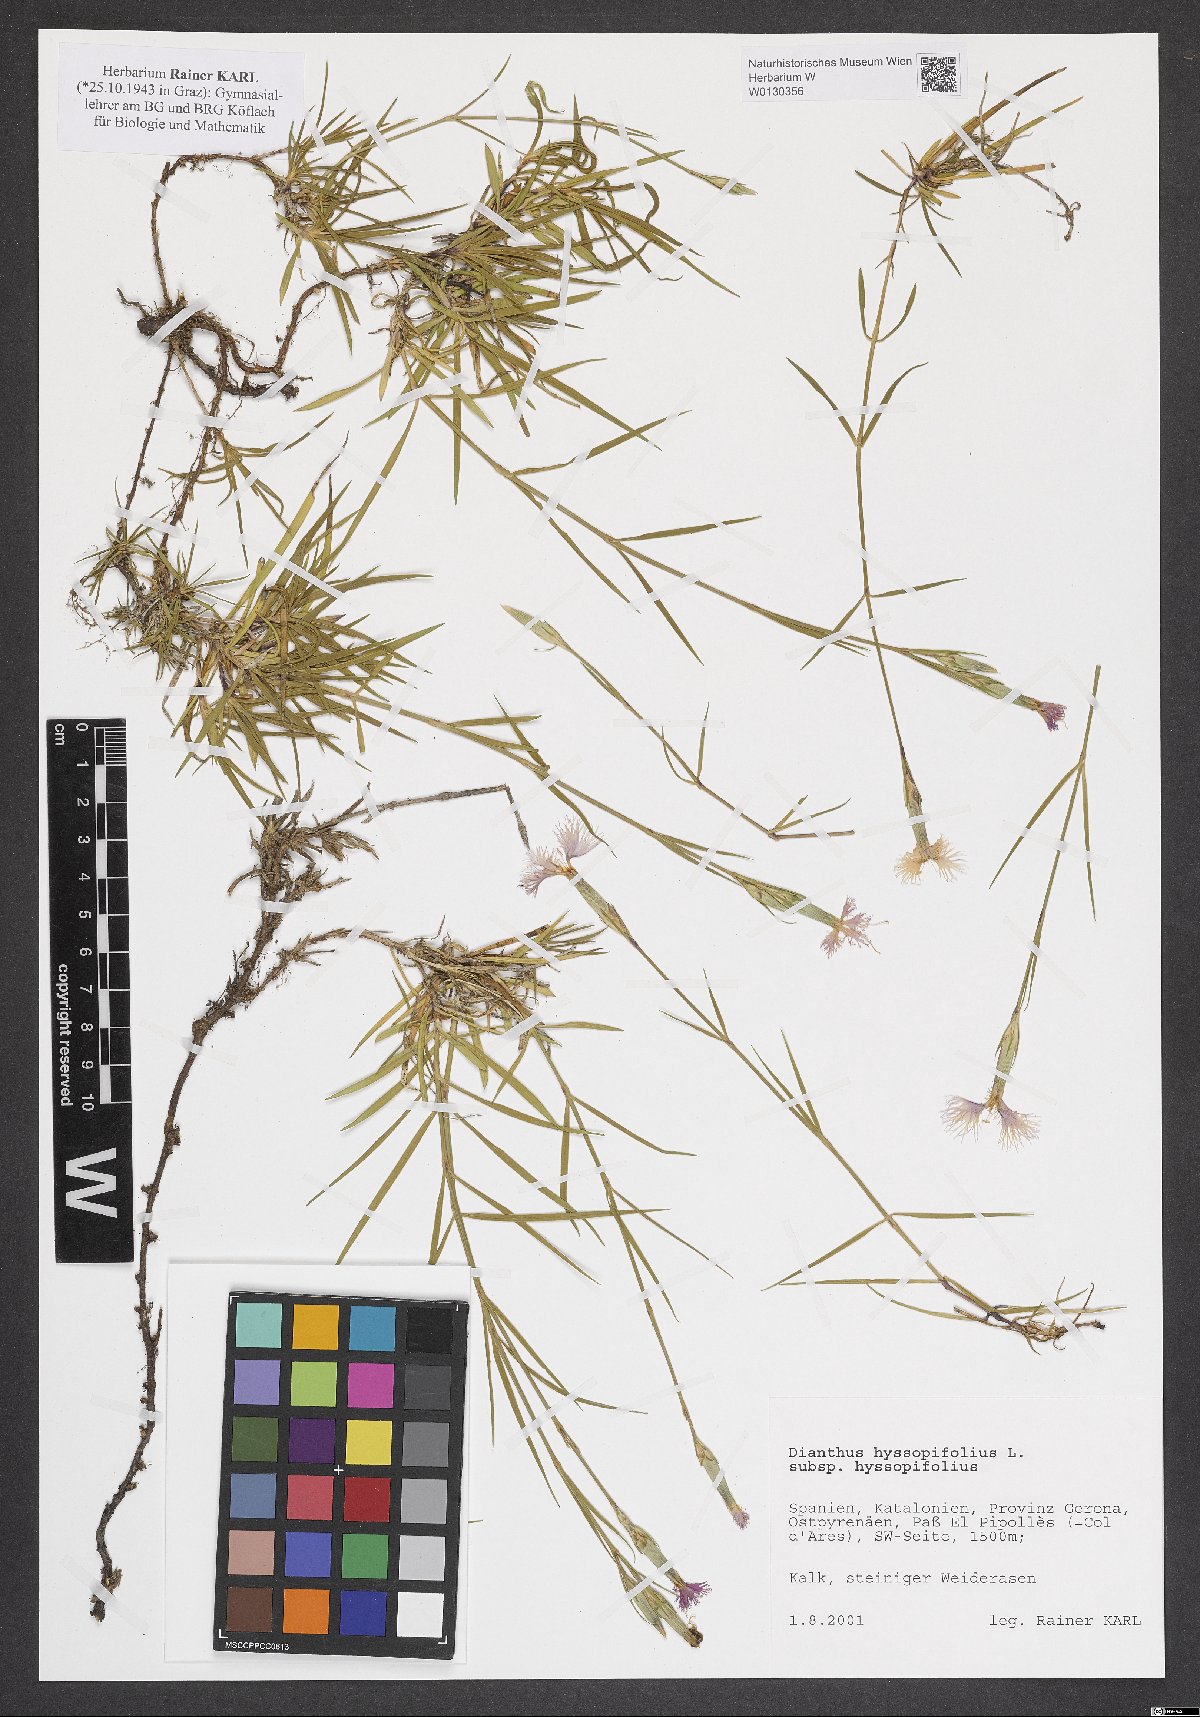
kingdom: Plantae
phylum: Tracheophyta
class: Magnoliopsida
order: Caryophyllales
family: Caryophyllaceae
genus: Dianthus
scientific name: Dianthus hyssopifolius
